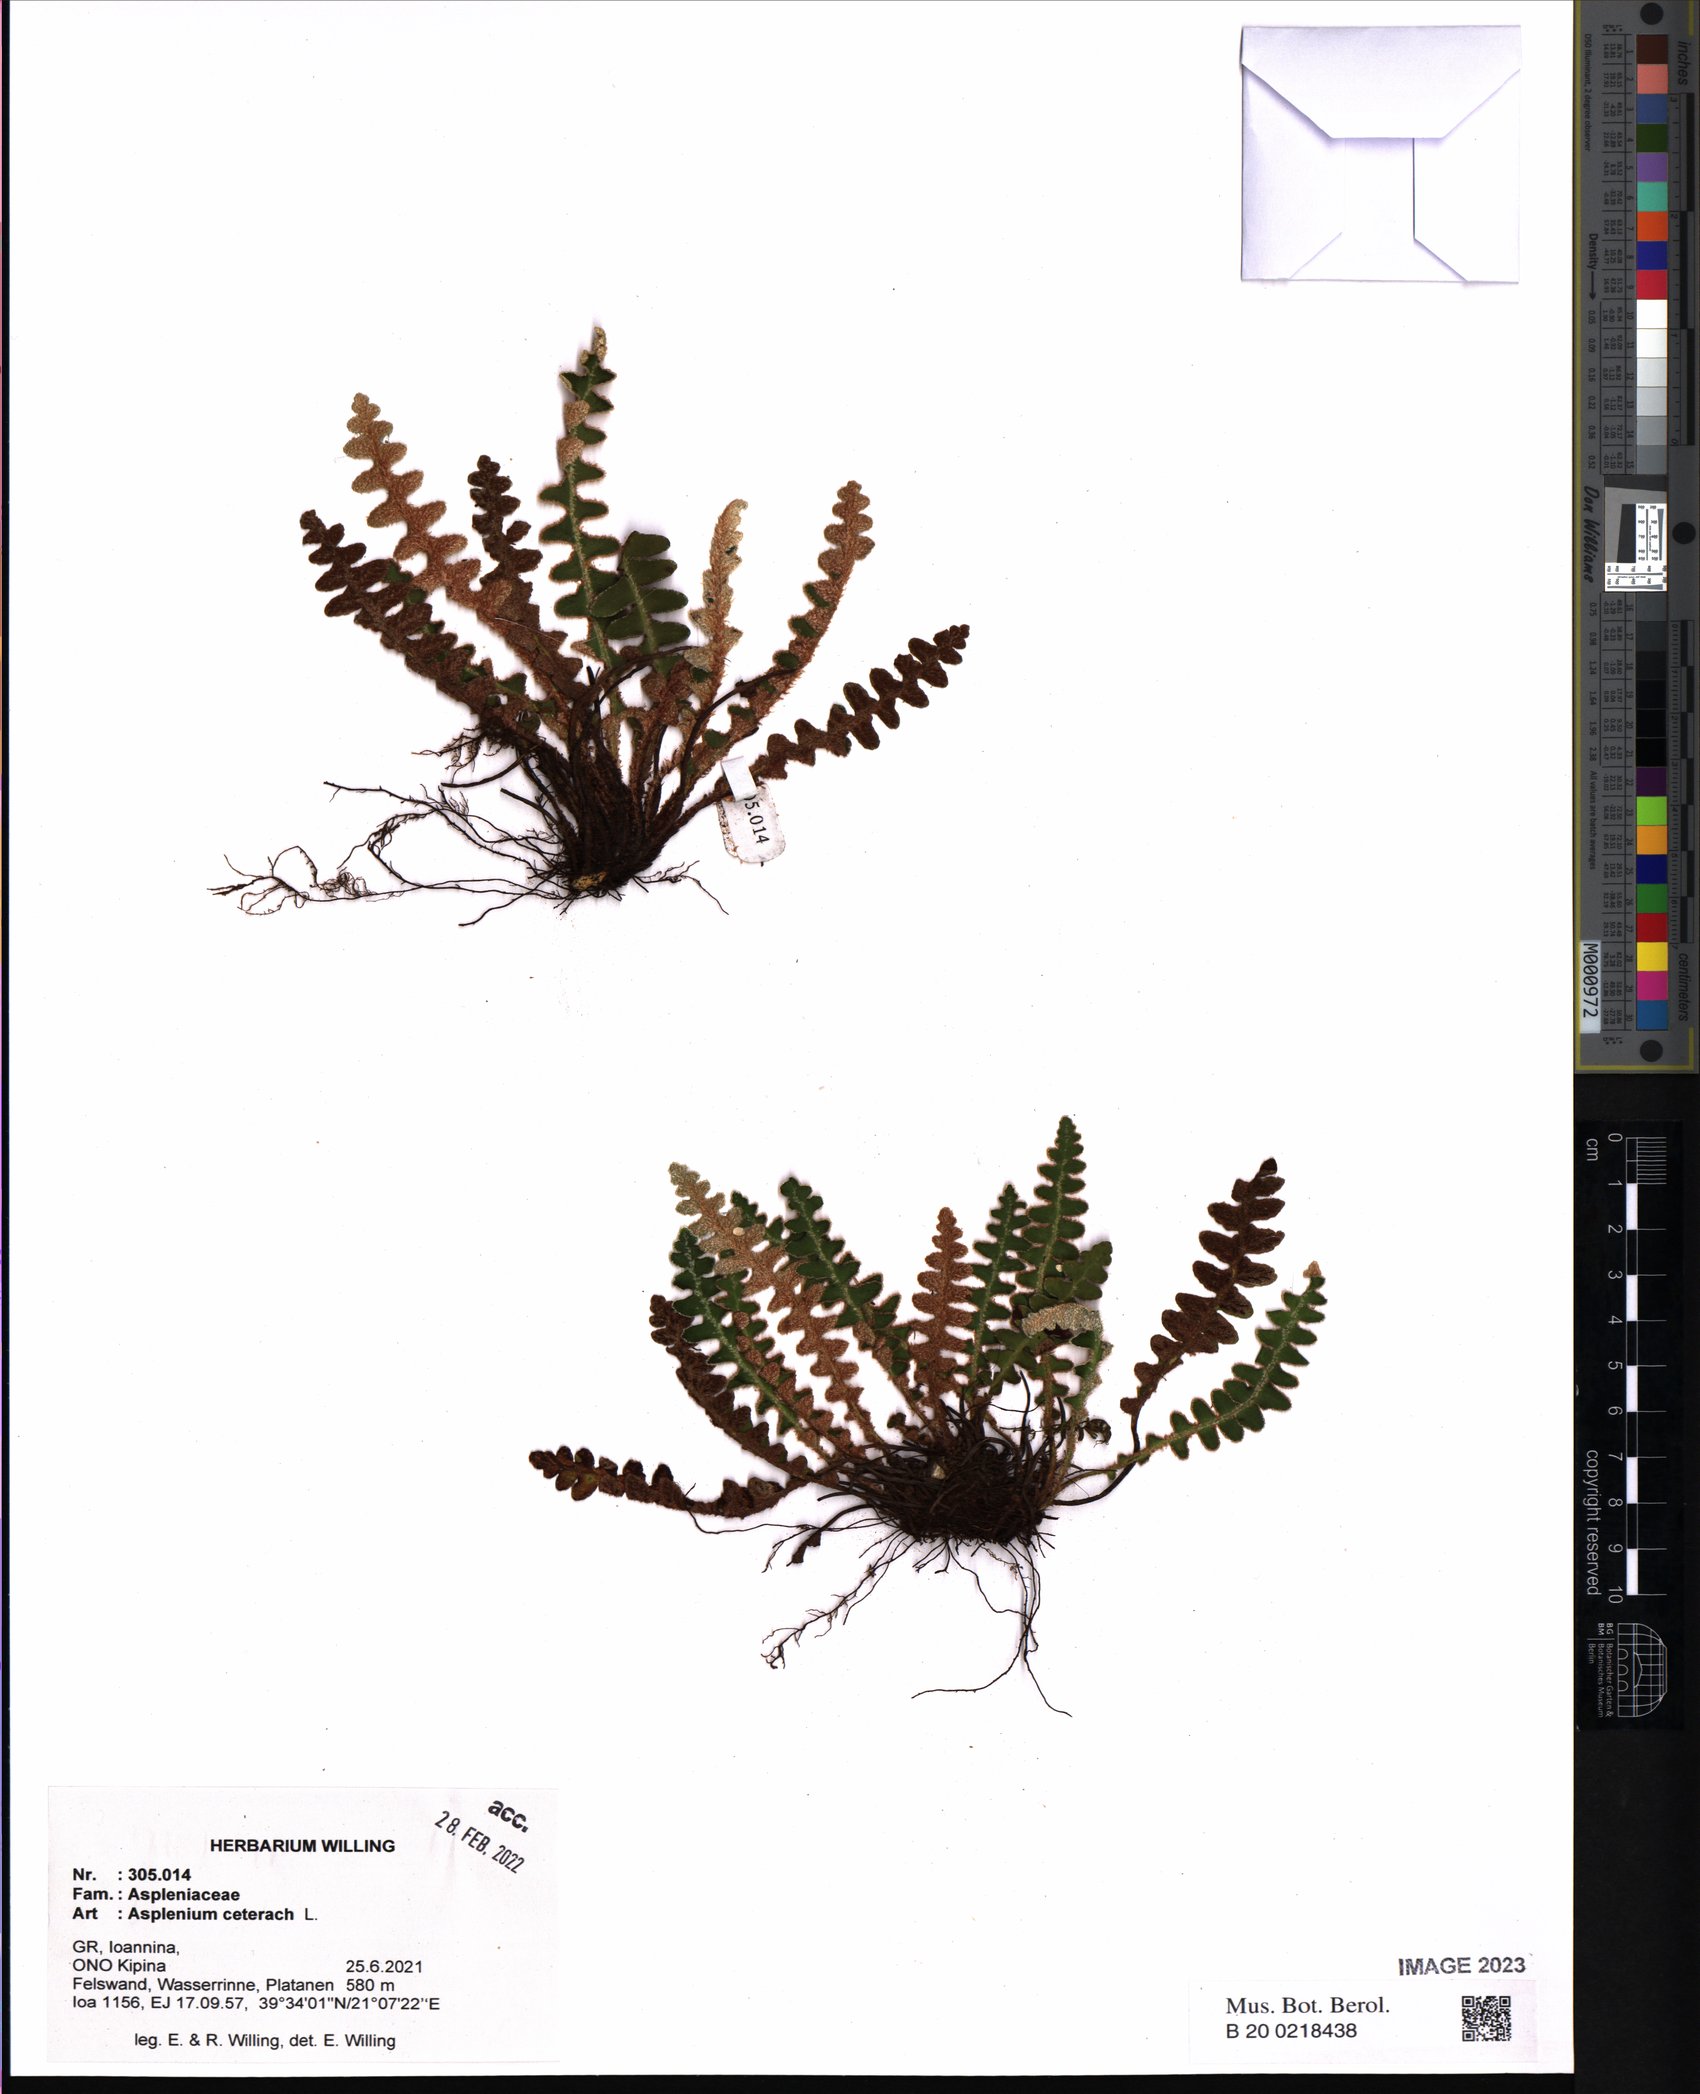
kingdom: Plantae
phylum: Tracheophyta
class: Polypodiopsida
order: Polypodiales
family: Aspleniaceae
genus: Asplenium
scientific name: Asplenium ceterach
